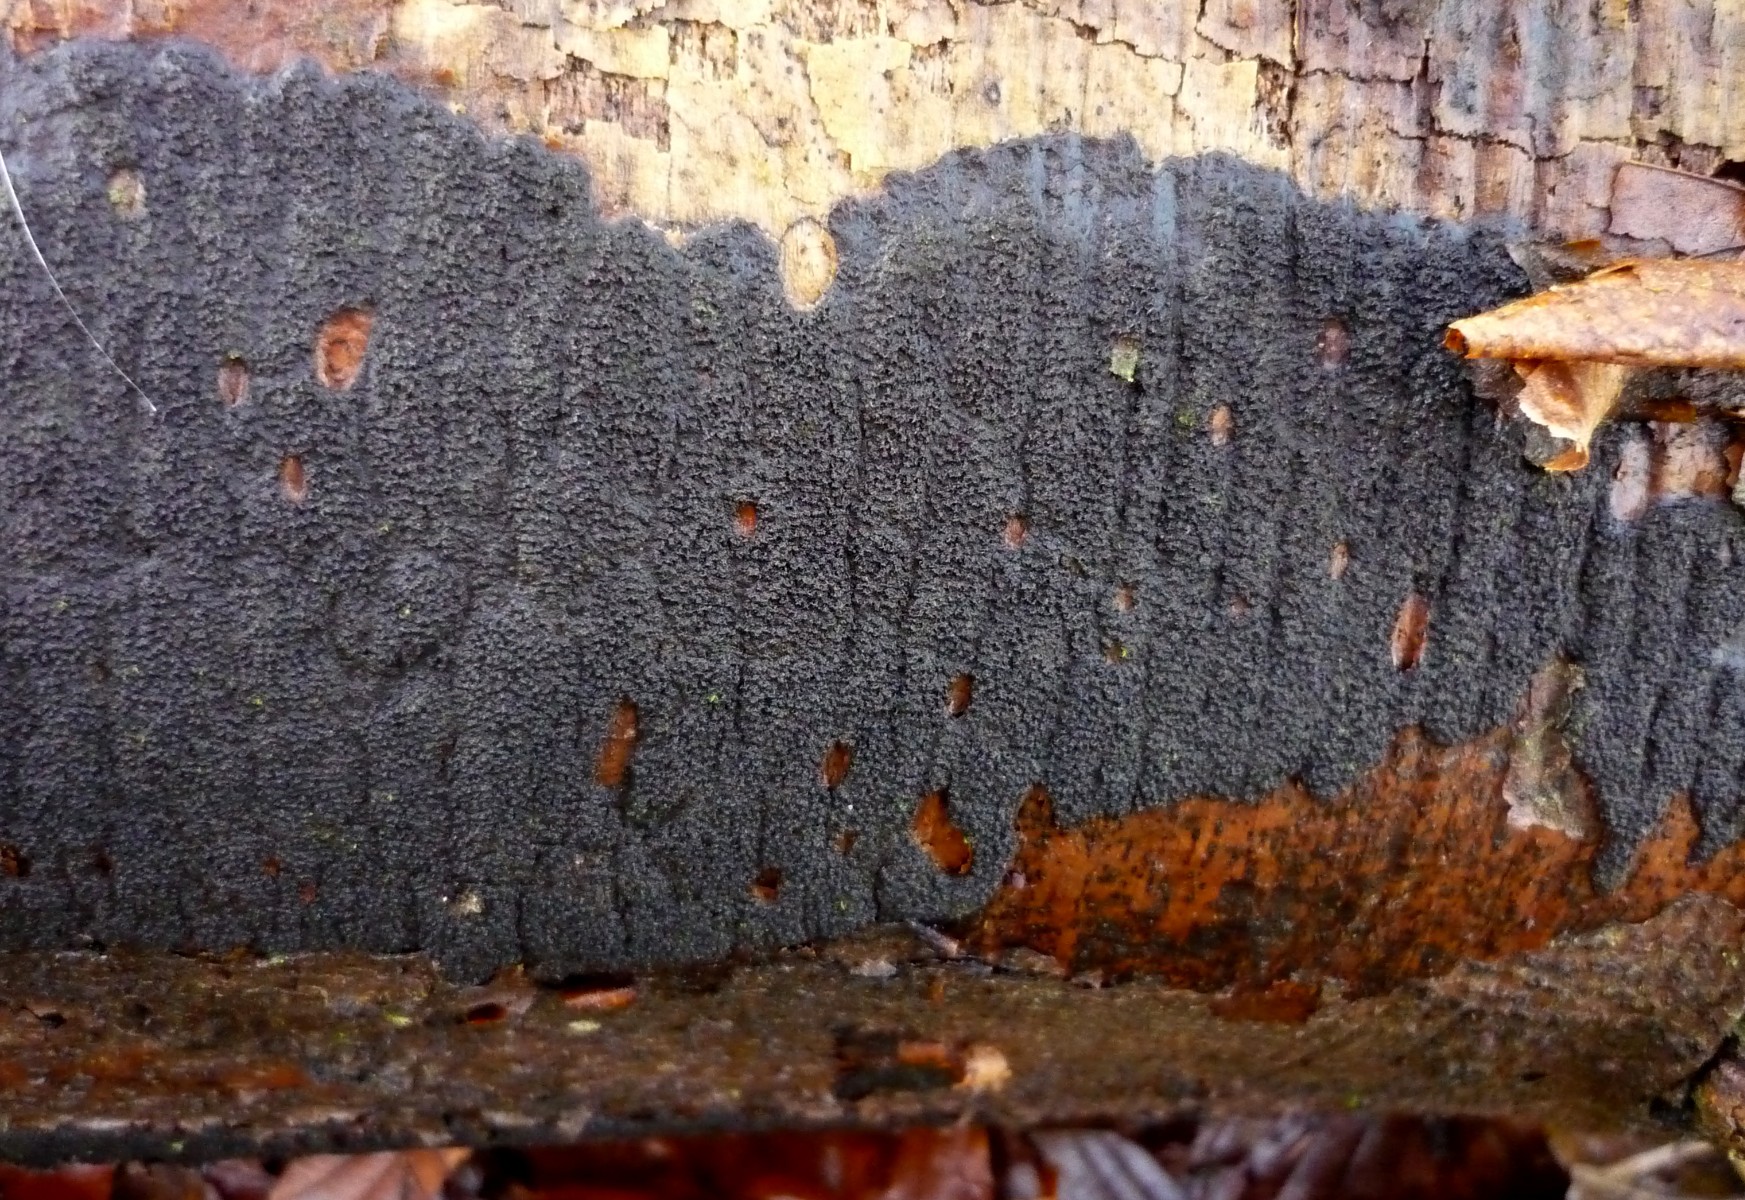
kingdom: Fungi
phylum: Ascomycota
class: Sordariomycetes
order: Xylariales
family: Diatrypaceae
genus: Eutypa
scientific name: Eutypa spinosa
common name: grov kulskorpe
